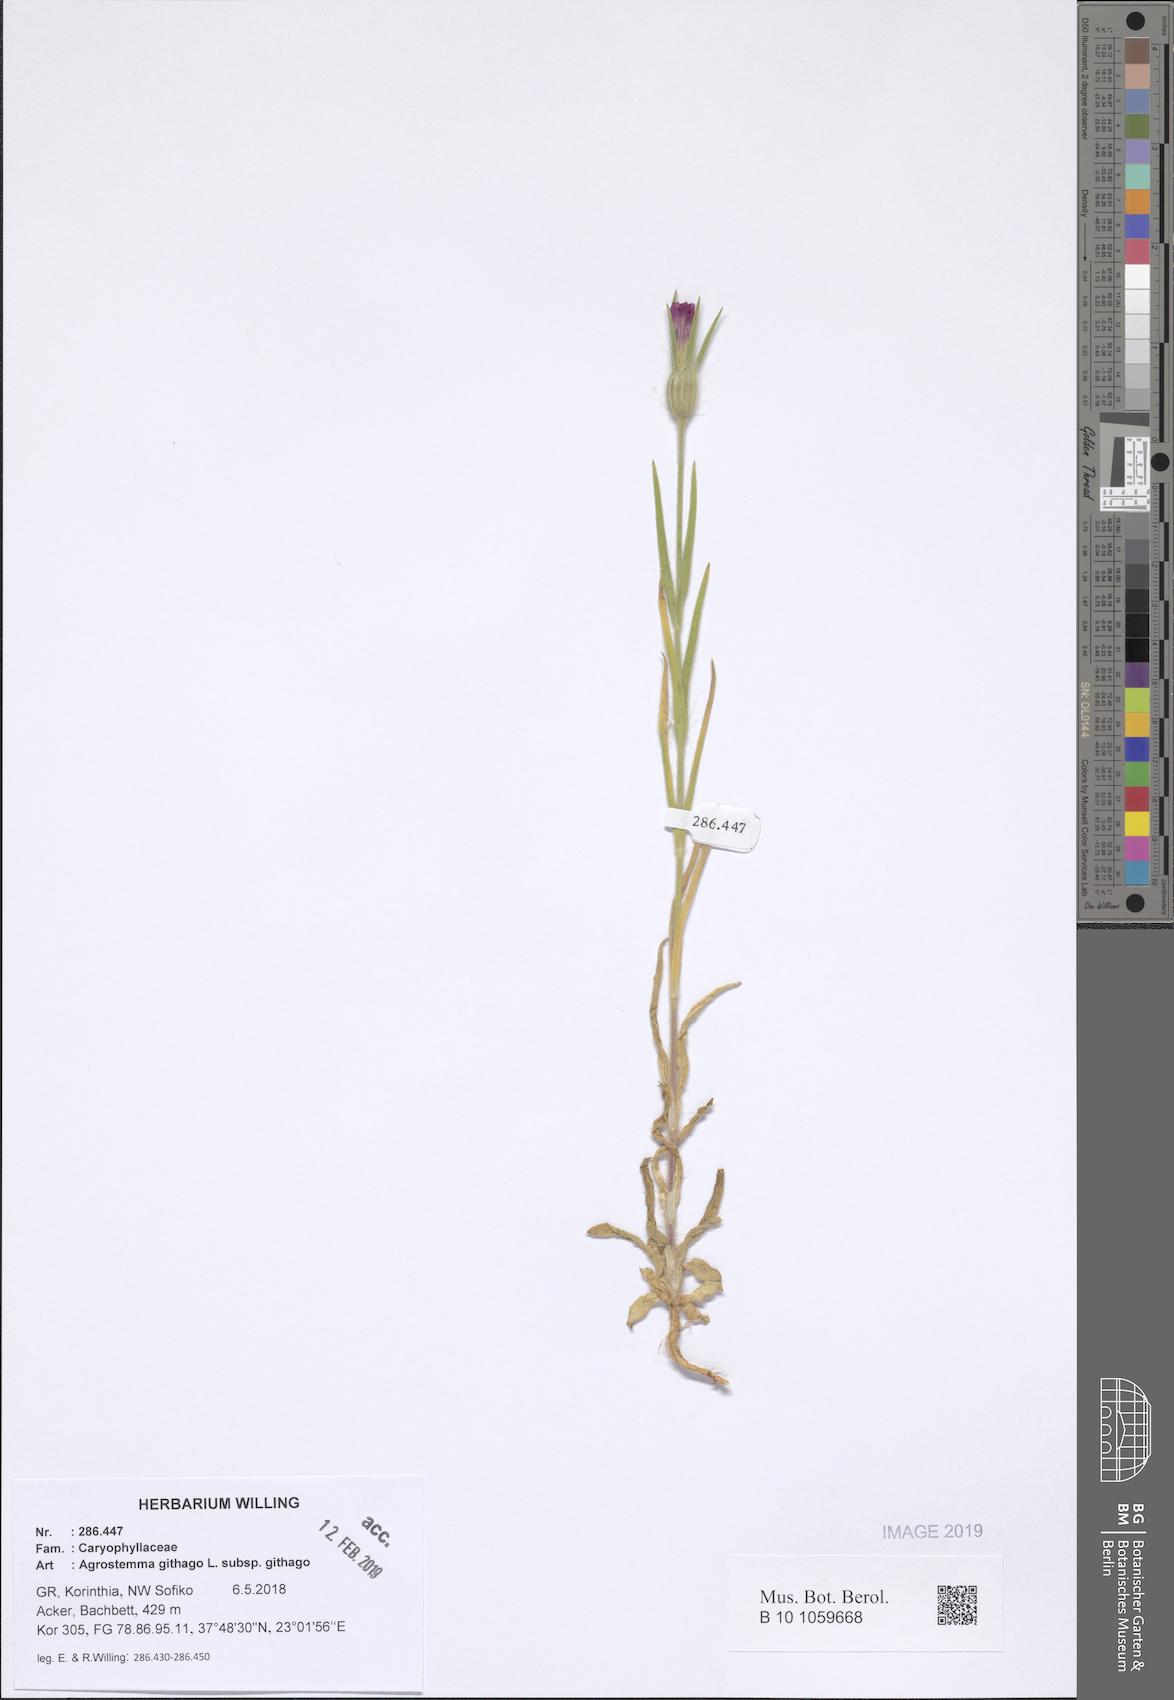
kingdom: Plantae
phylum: Tracheophyta
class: Magnoliopsida
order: Caryophyllales
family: Caryophyllaceae
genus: Agrostemma
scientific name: Agrostemma githago
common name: Common corncockle
